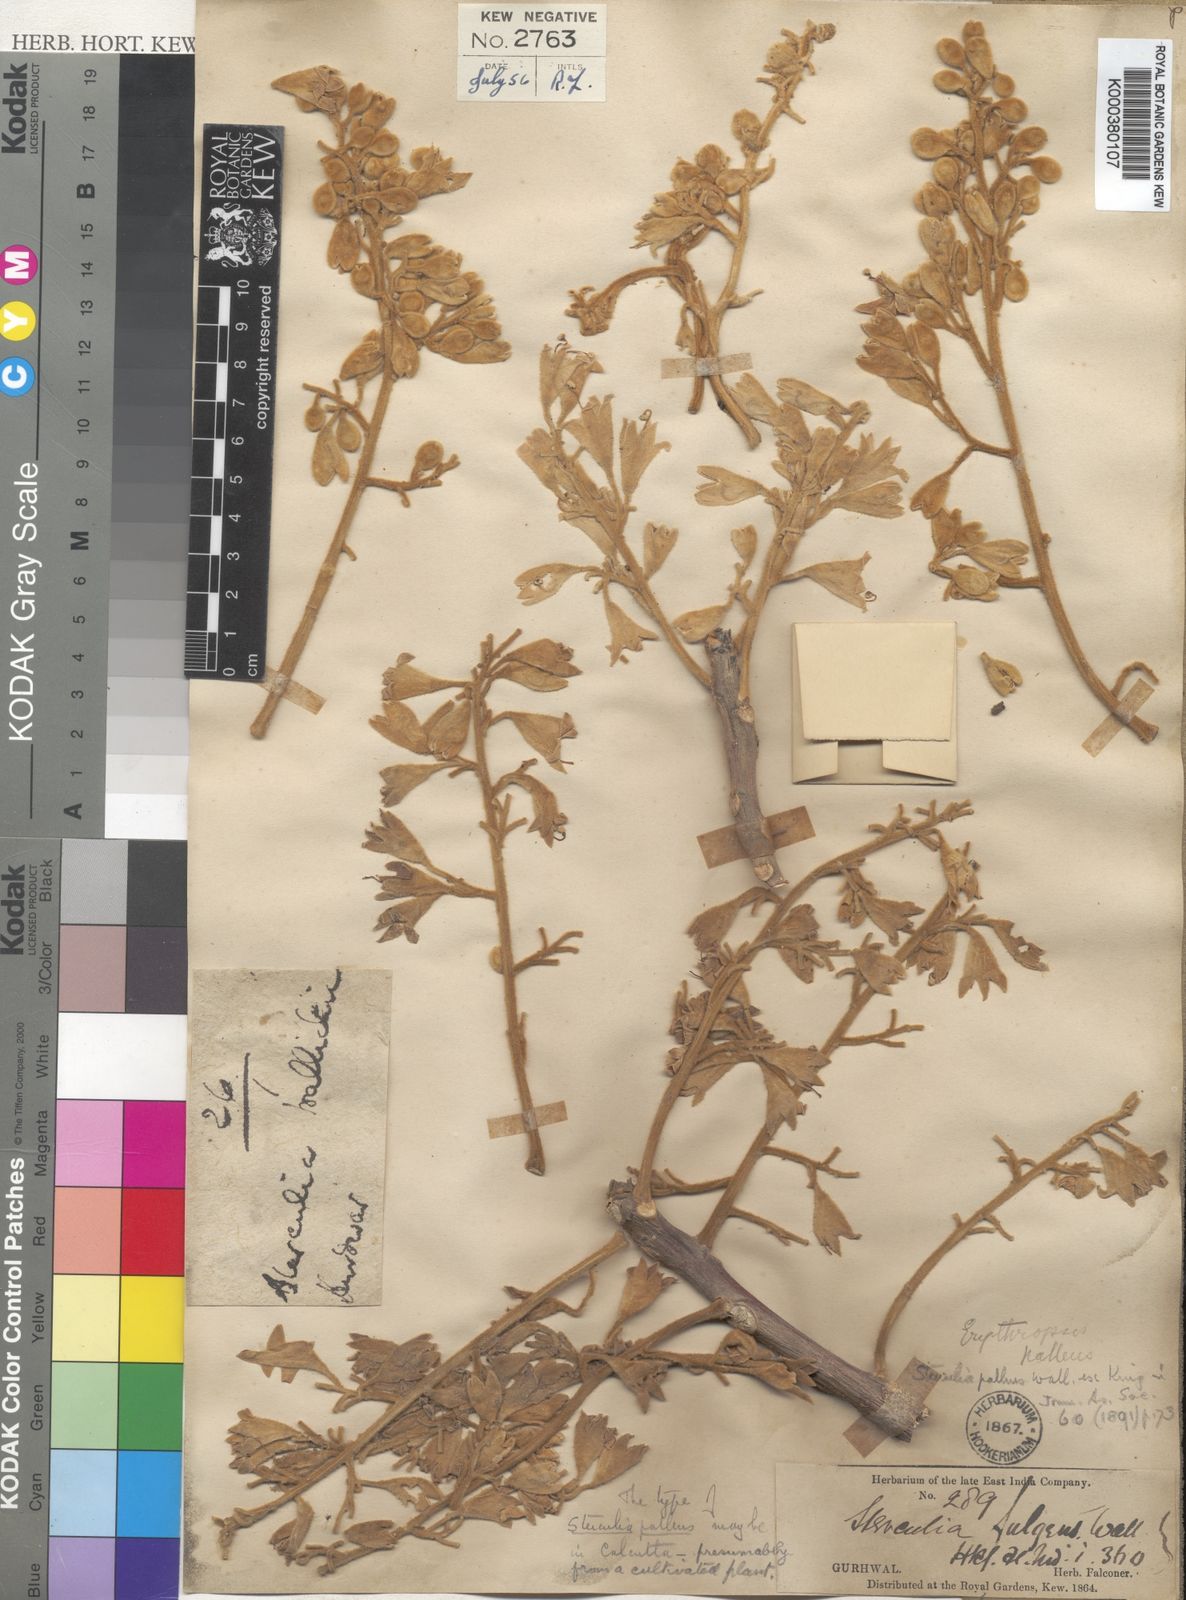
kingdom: Plantae
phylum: Tracheophyta
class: Magnoliopsida
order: Malvales
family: Malvaceae
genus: Firmiana
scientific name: Firmiana fulgens
